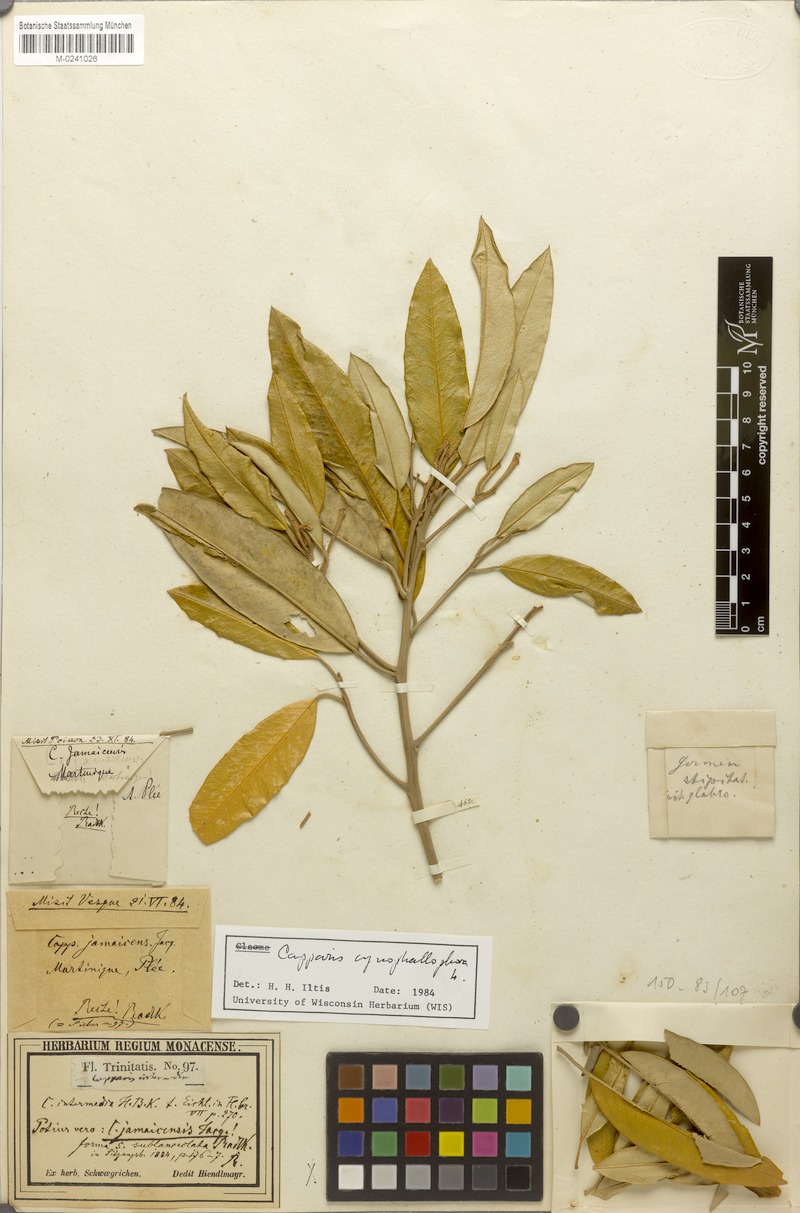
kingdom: Plantae
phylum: Tracheophyta
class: Magnoliopsida
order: Brassicales
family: Capparaceae
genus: Quadrella
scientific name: Quadrella cynophallophora
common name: Black willow
